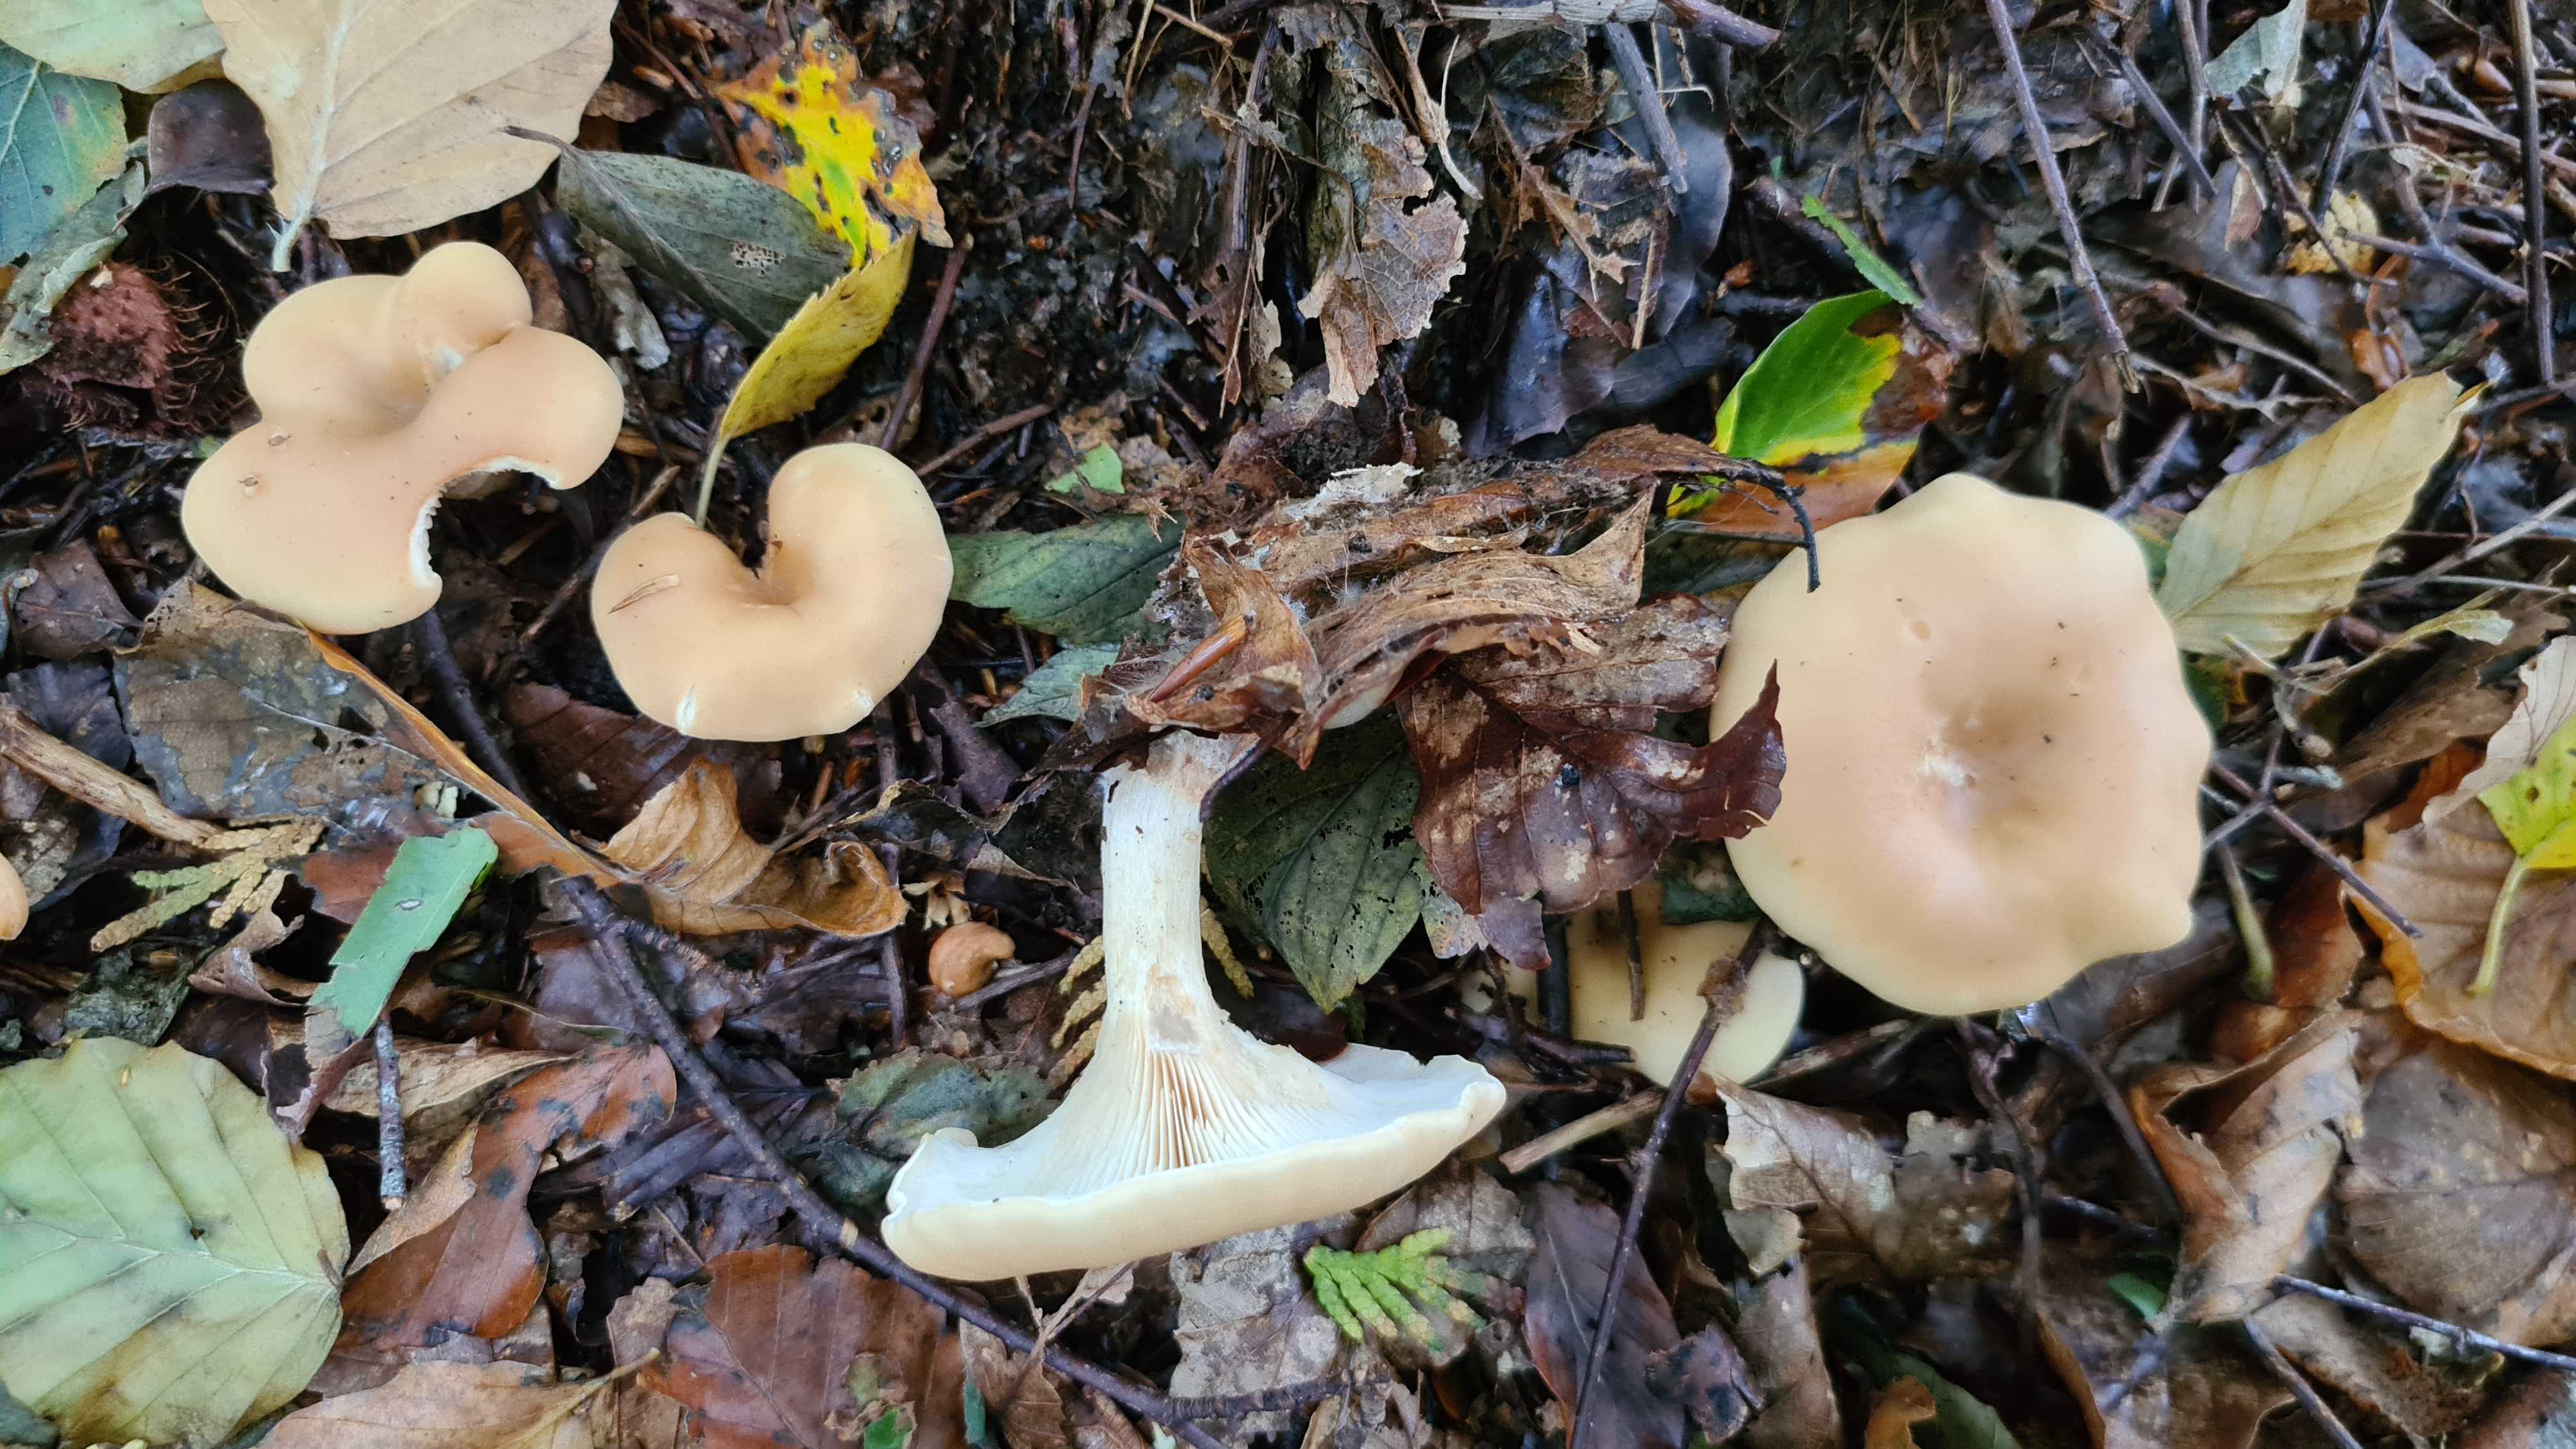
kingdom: Fungi
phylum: Basidiomycota
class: Agaricomycetes
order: Agaricales
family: Tricholomataceae
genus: Paralepista
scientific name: Paralepista flaccida
